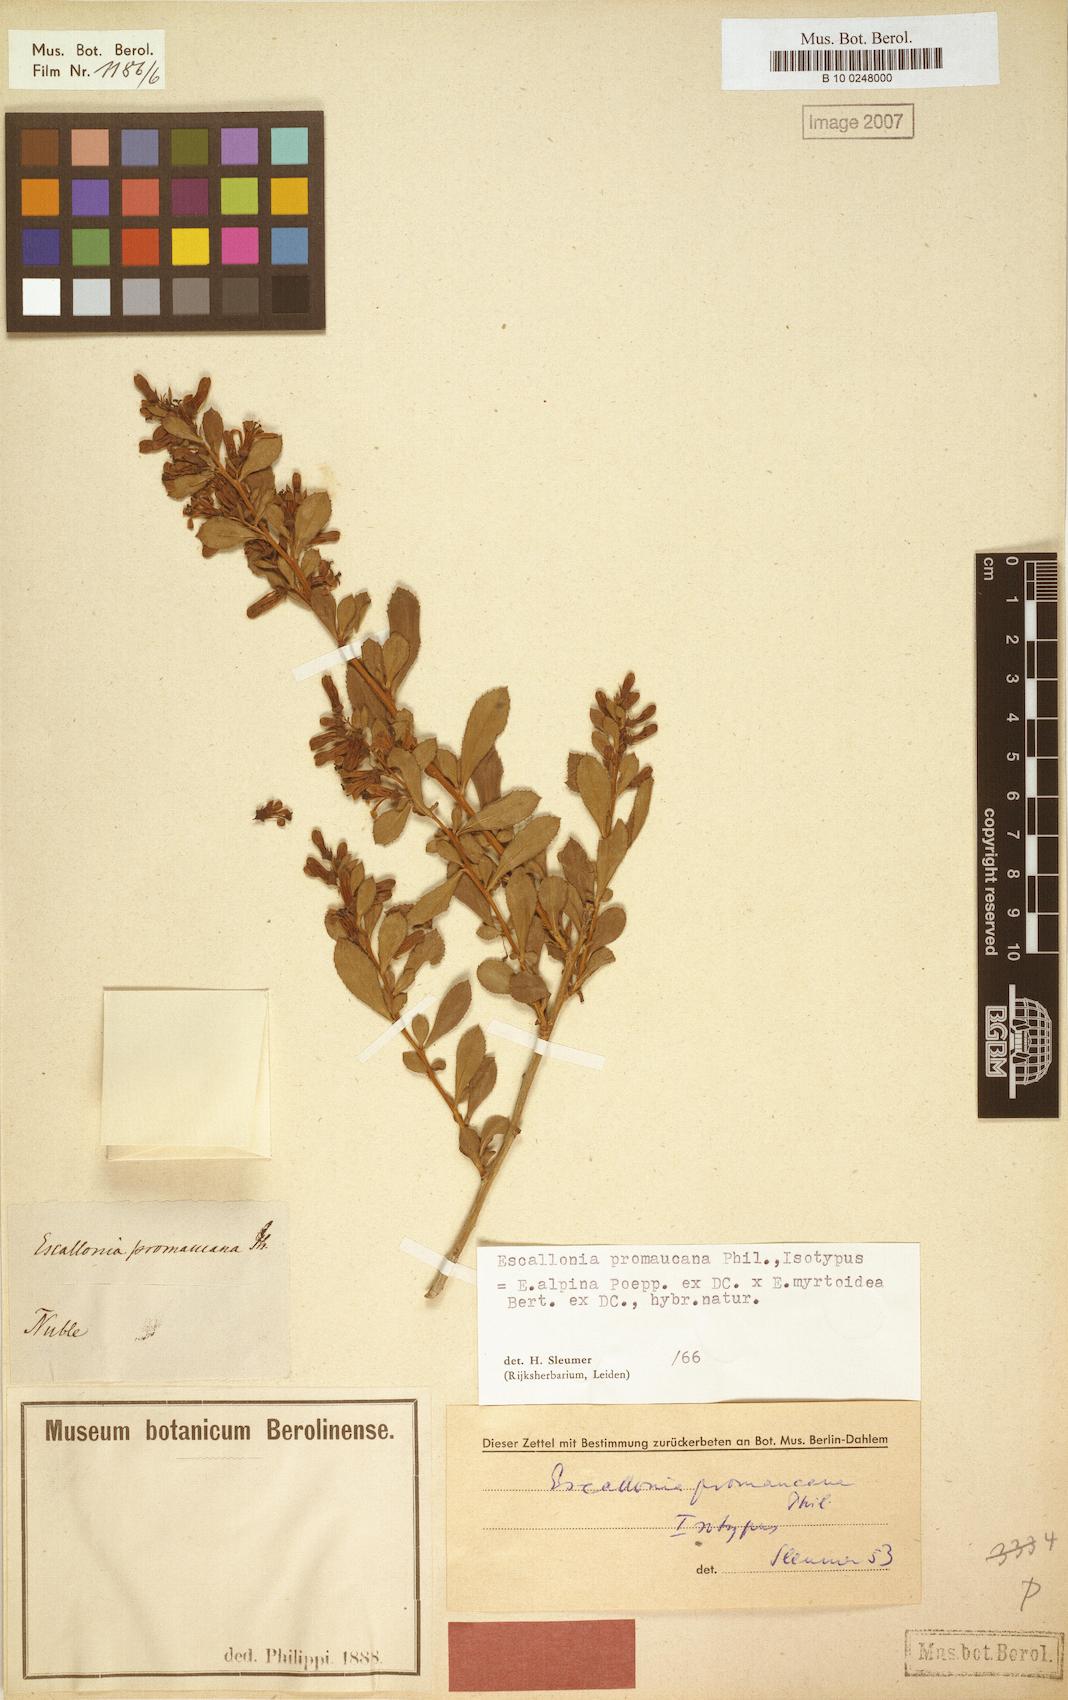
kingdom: Plantae
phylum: Tracheophyta
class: Magnoliopsida
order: Escalloniales
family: Escalloniaceae
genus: Escallonia
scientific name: Escallonia alpina
